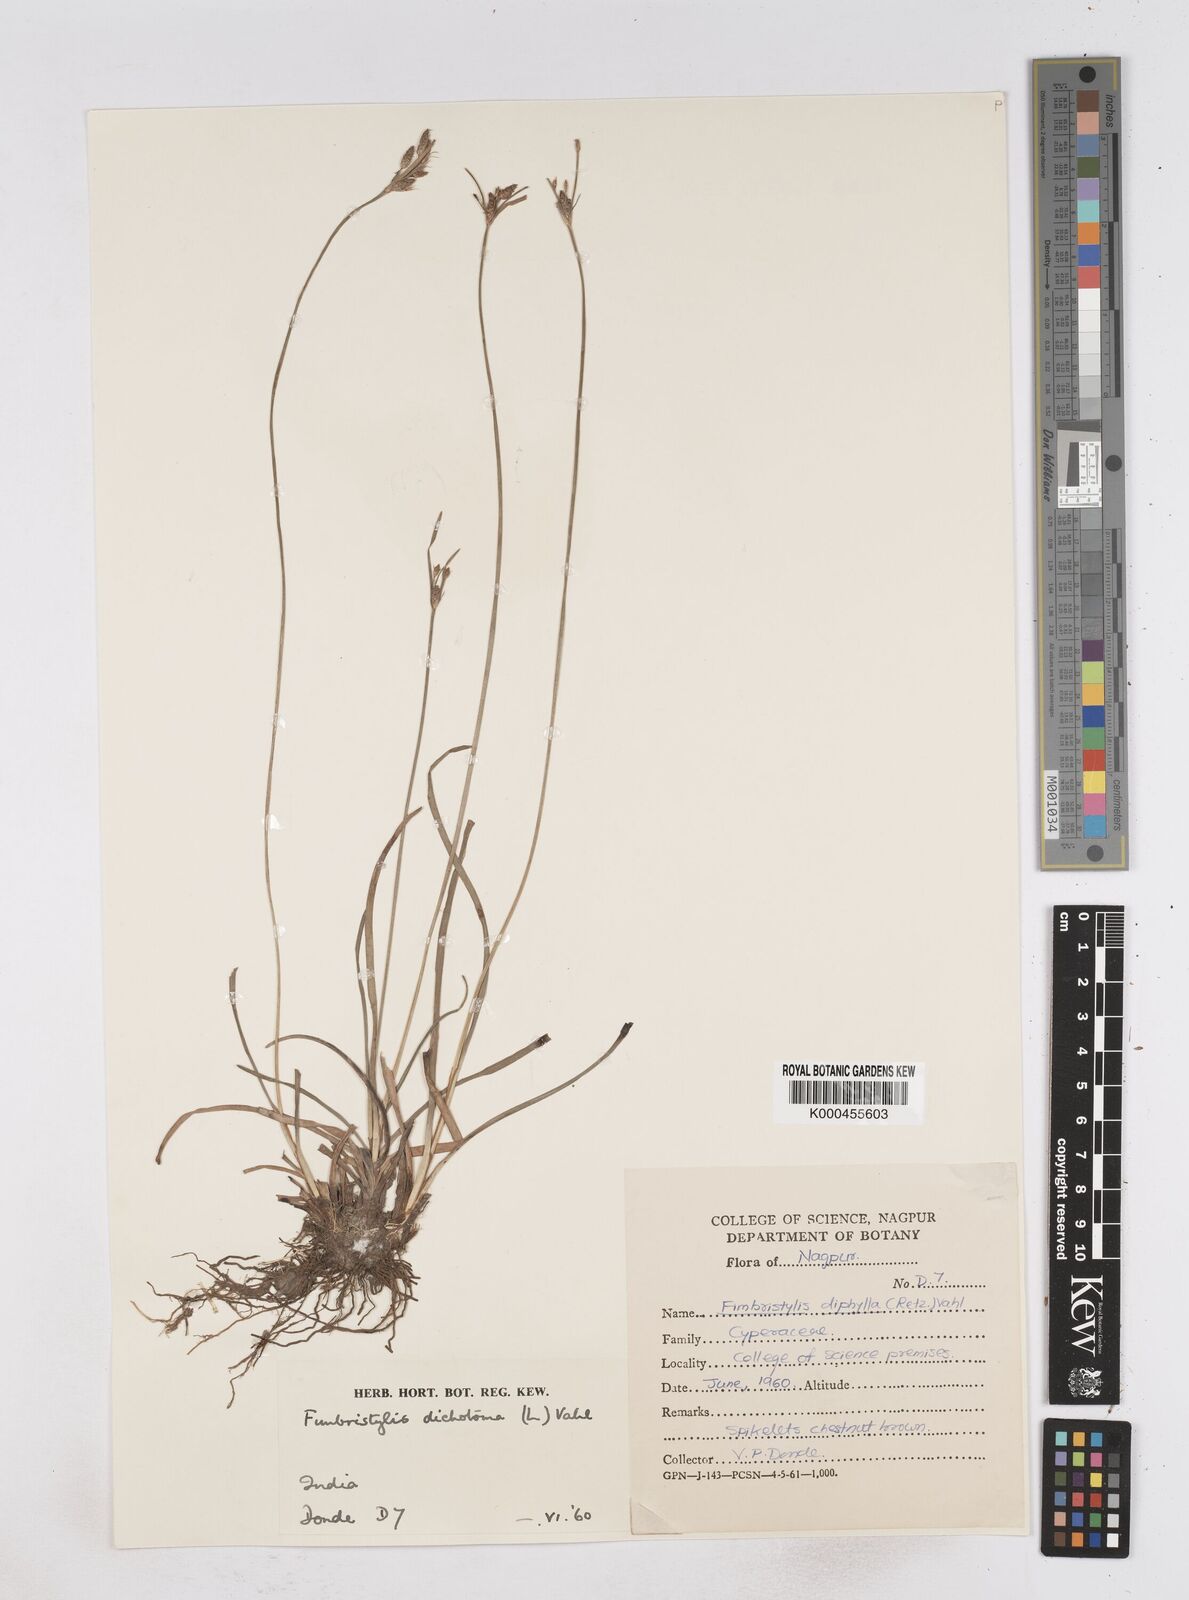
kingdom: Plantae
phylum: Tracheophyta
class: Liliopsida
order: Poales
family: Cyperaceae
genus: Fimbristylis
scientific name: Fimbristylis dichotoma
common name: Forked fimbry
